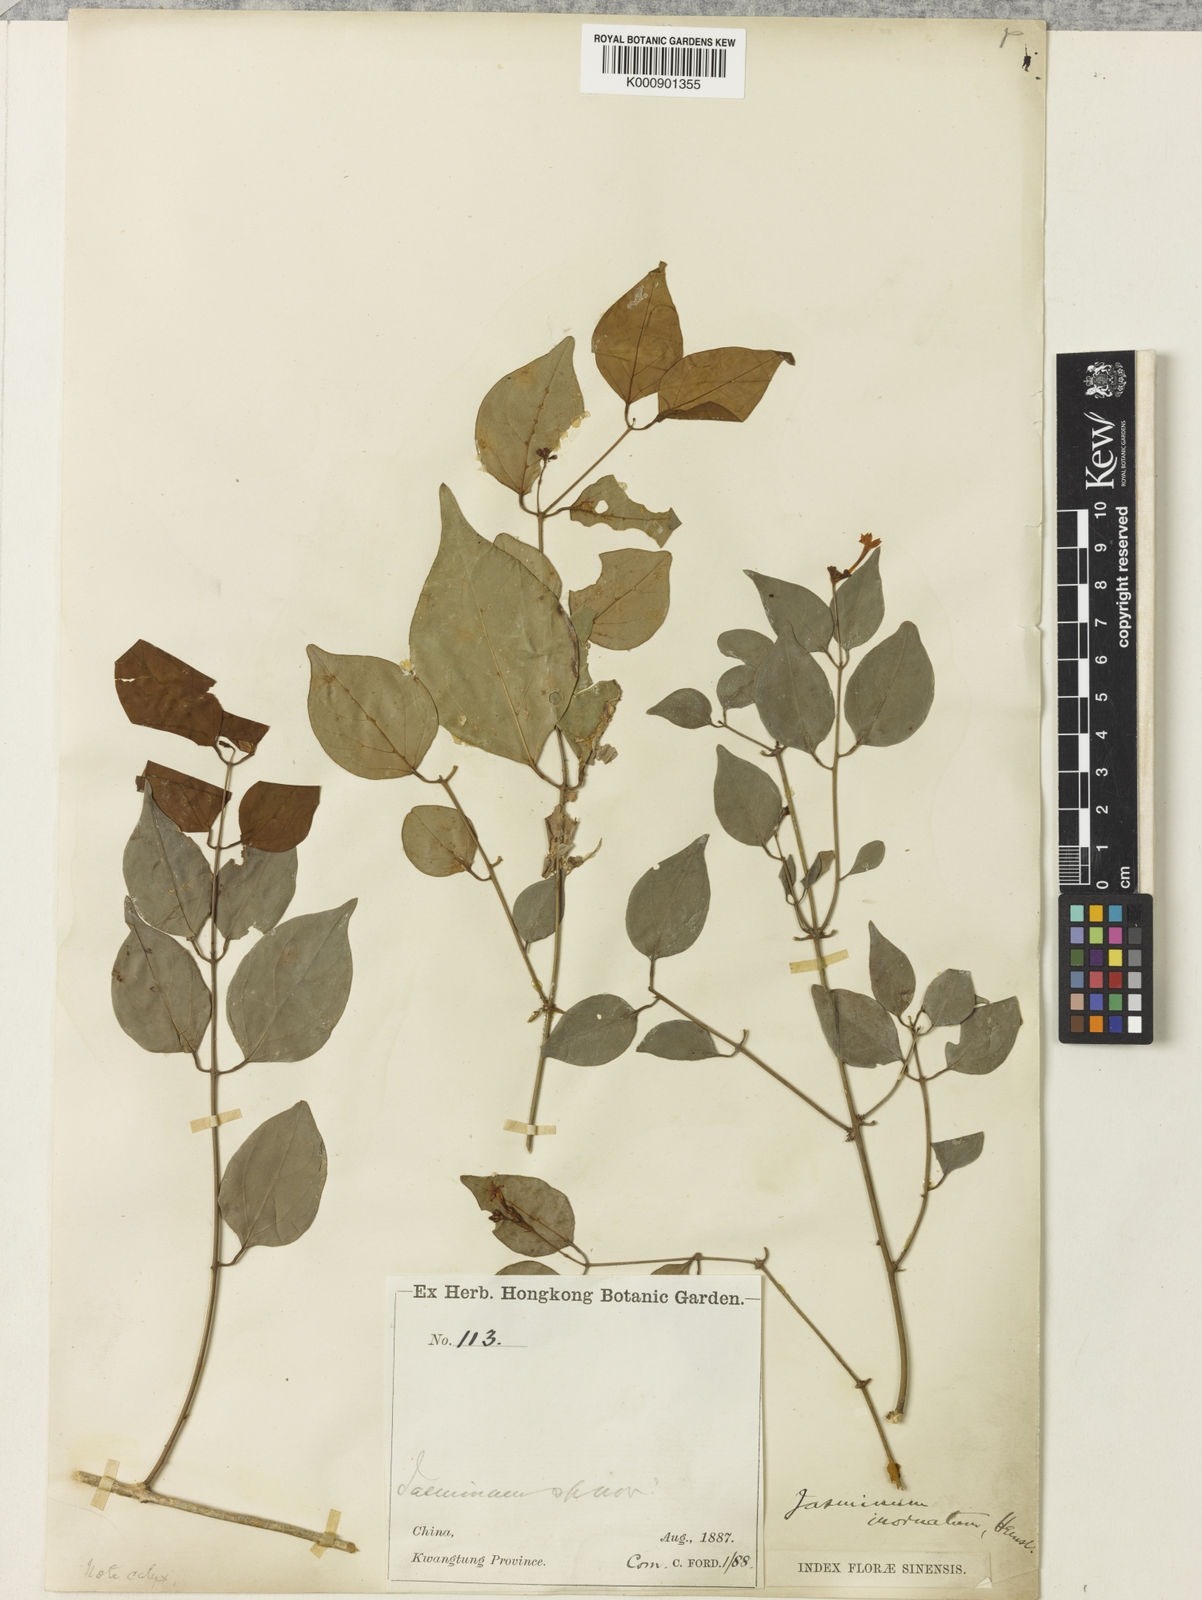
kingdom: Plantae
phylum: Tracheophyta
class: Magnoliopsida
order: Lamiales
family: Oleaceae
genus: Jasminum
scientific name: Jasminum microcalyx
